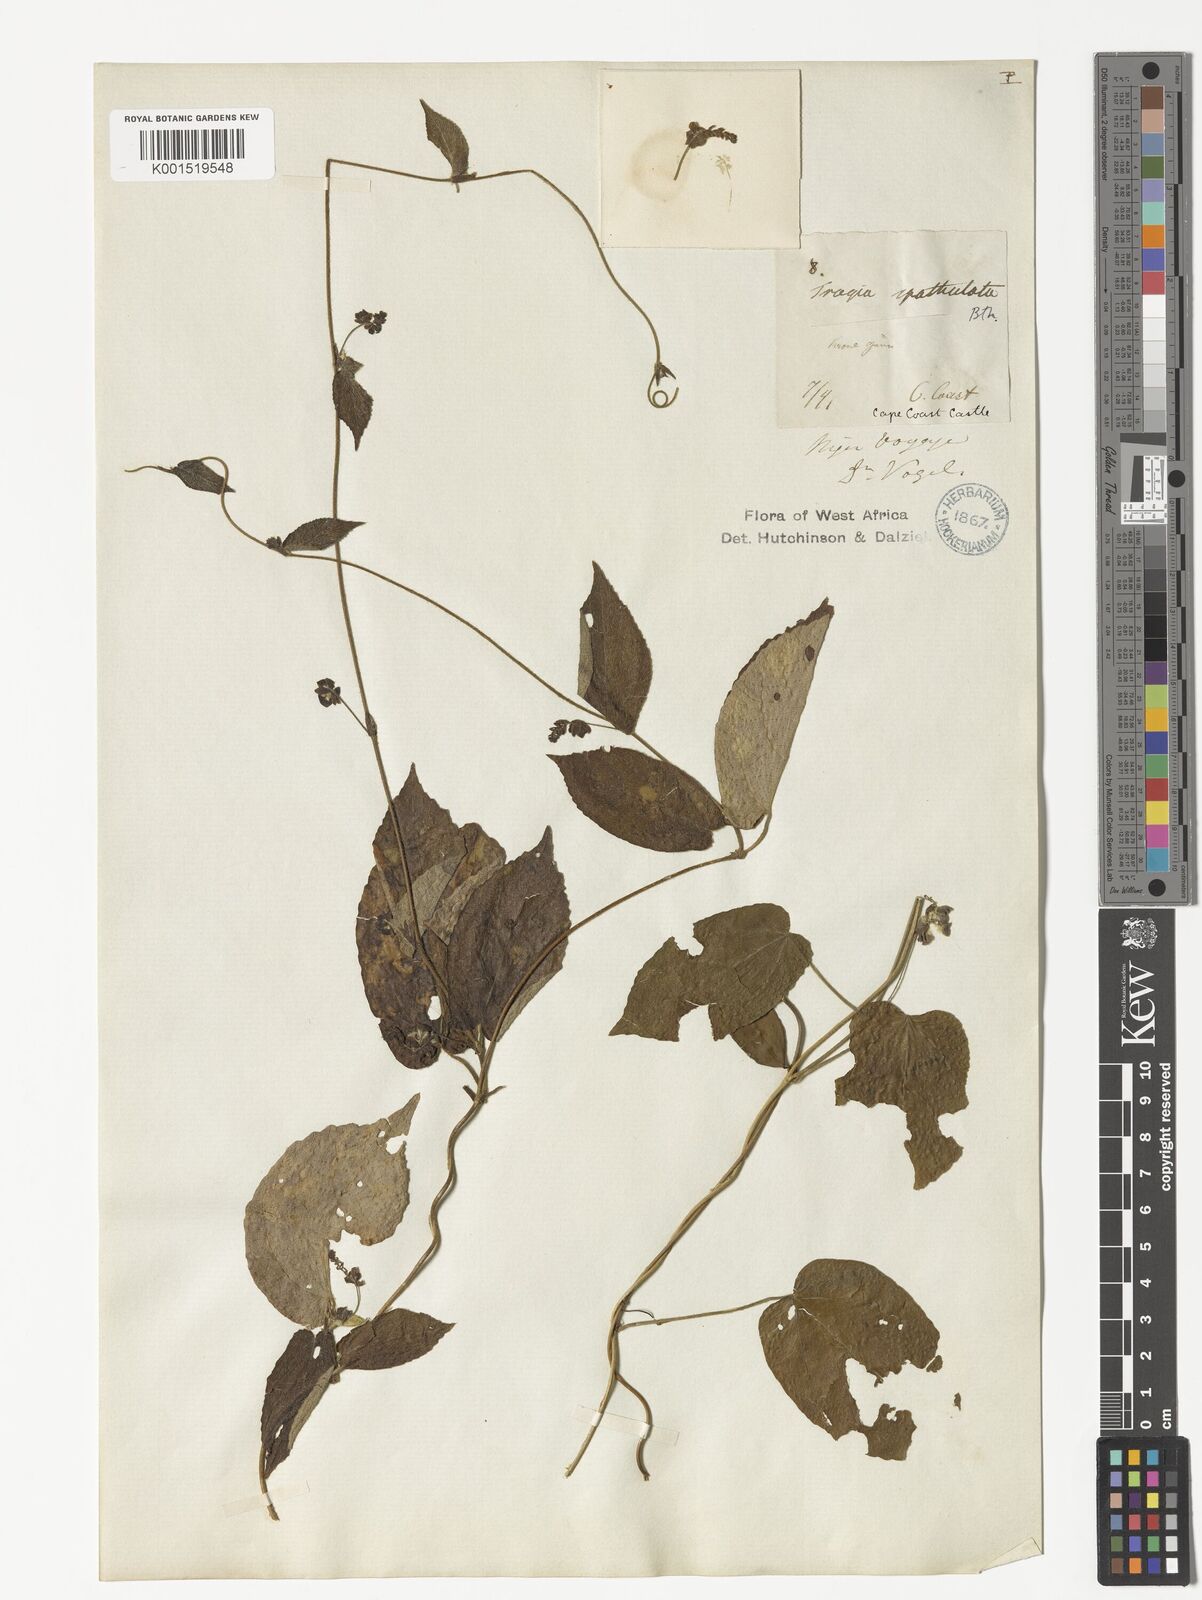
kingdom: Plantae
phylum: Tracheophyta
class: Magnoliopsida
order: Malpighiales
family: Euphorbiaceae
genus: Tragia
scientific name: Tragia spathulata
